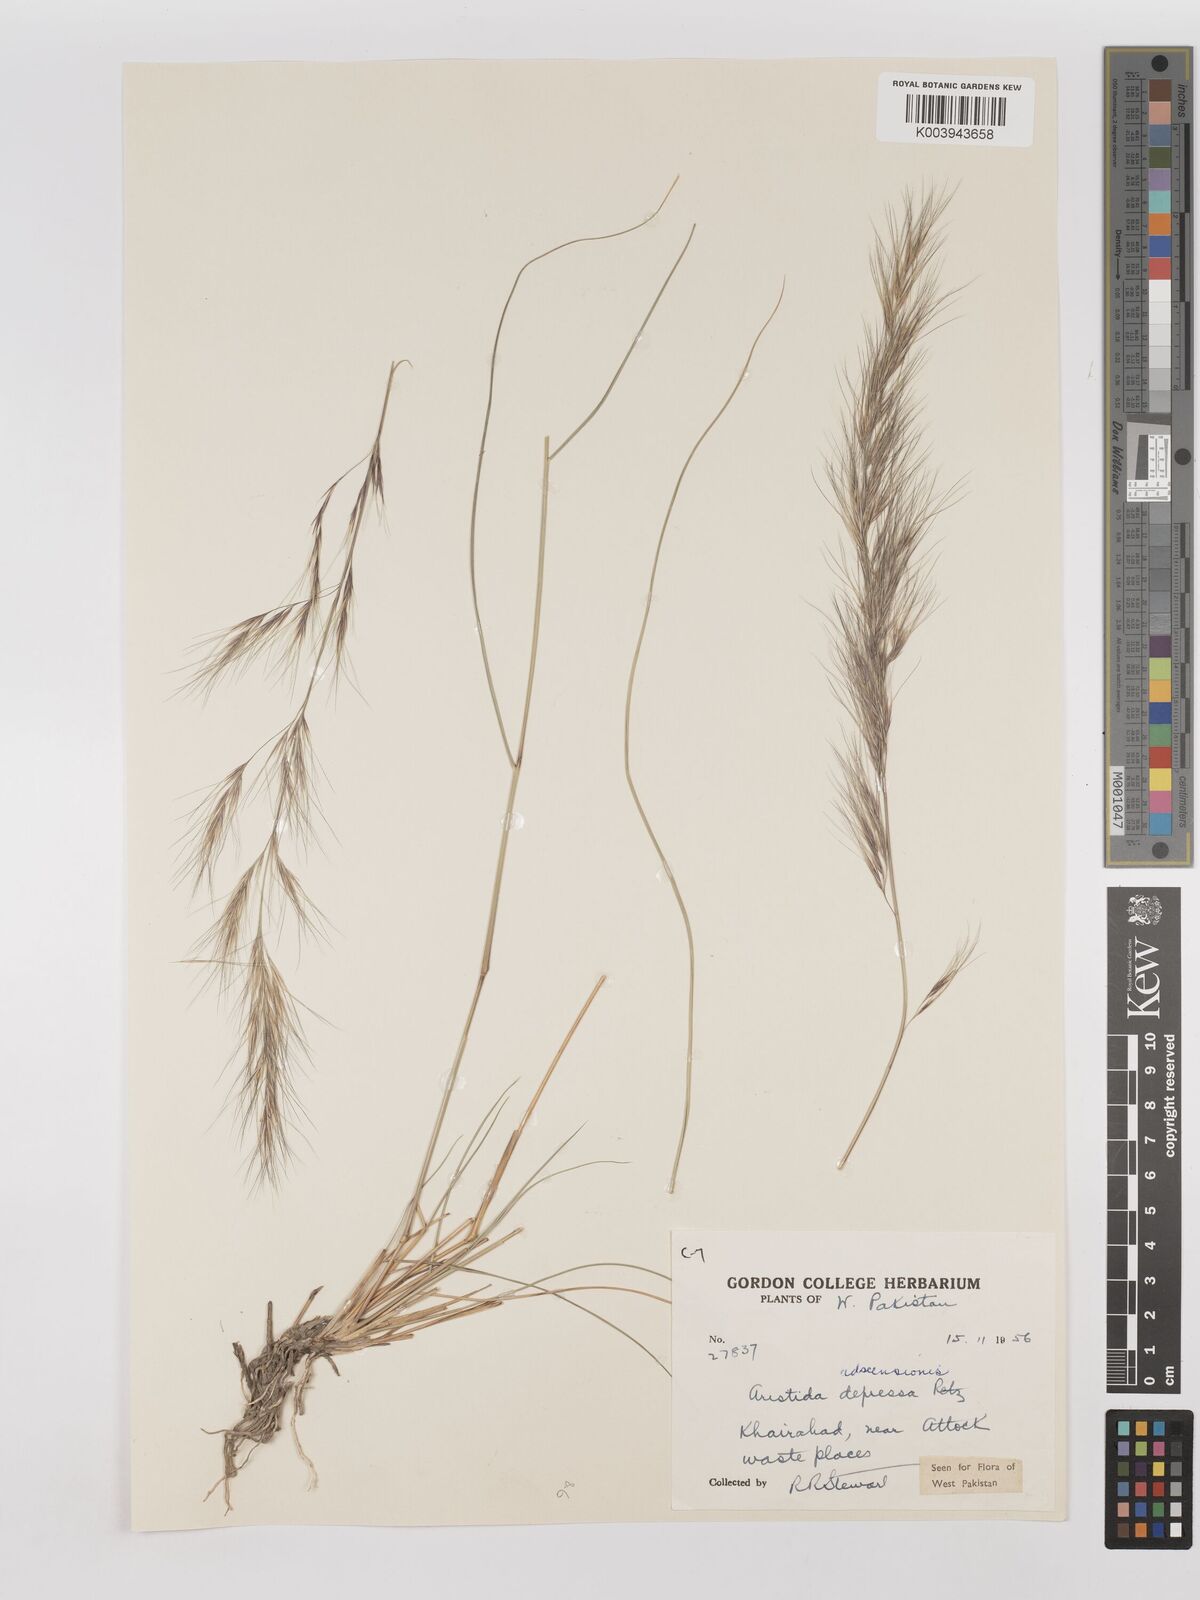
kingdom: Plantae
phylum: Tracheophyta
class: Liliopsida
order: Poales
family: Poaceae
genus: Aristida
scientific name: Aristida adscensionis
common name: Sixweeks threeawn
